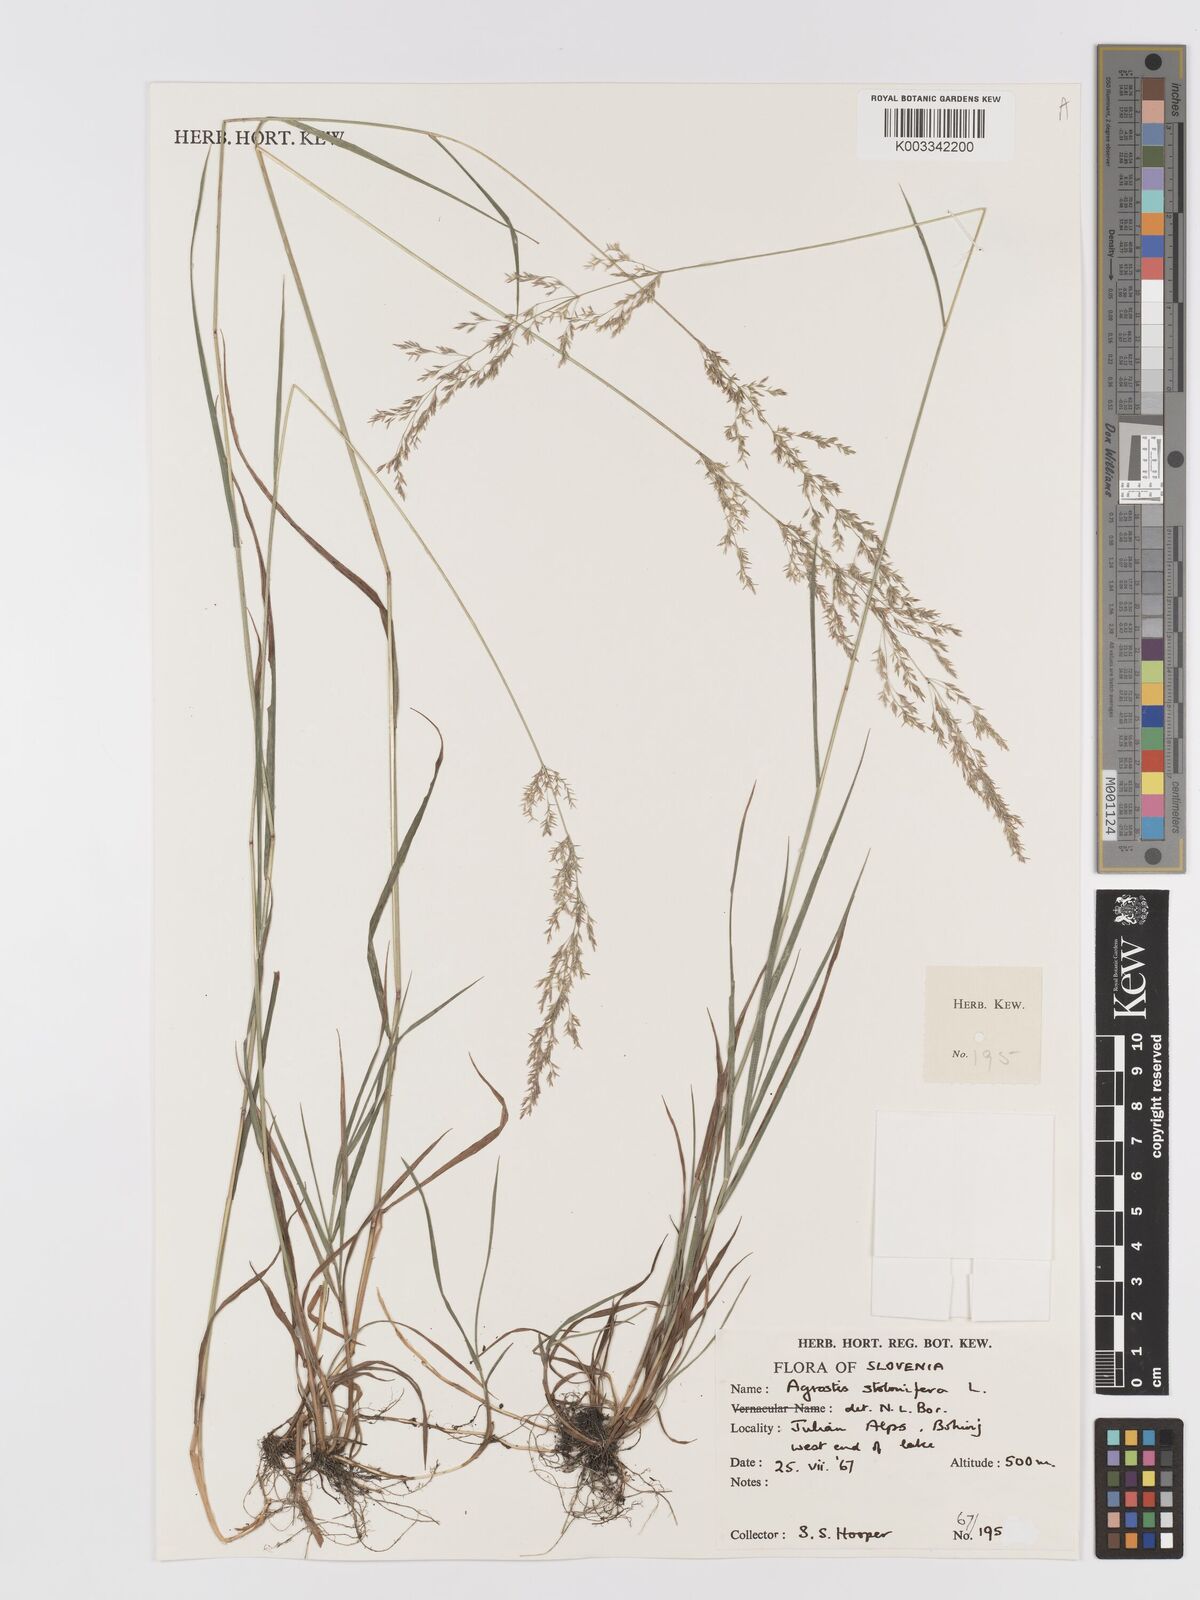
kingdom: Plantae
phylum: Tracheophyta
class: Liliopsida
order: Poales
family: Poaceae
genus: Agrostis
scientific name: Agrostis stolonifera
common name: Creeping bentgrass
